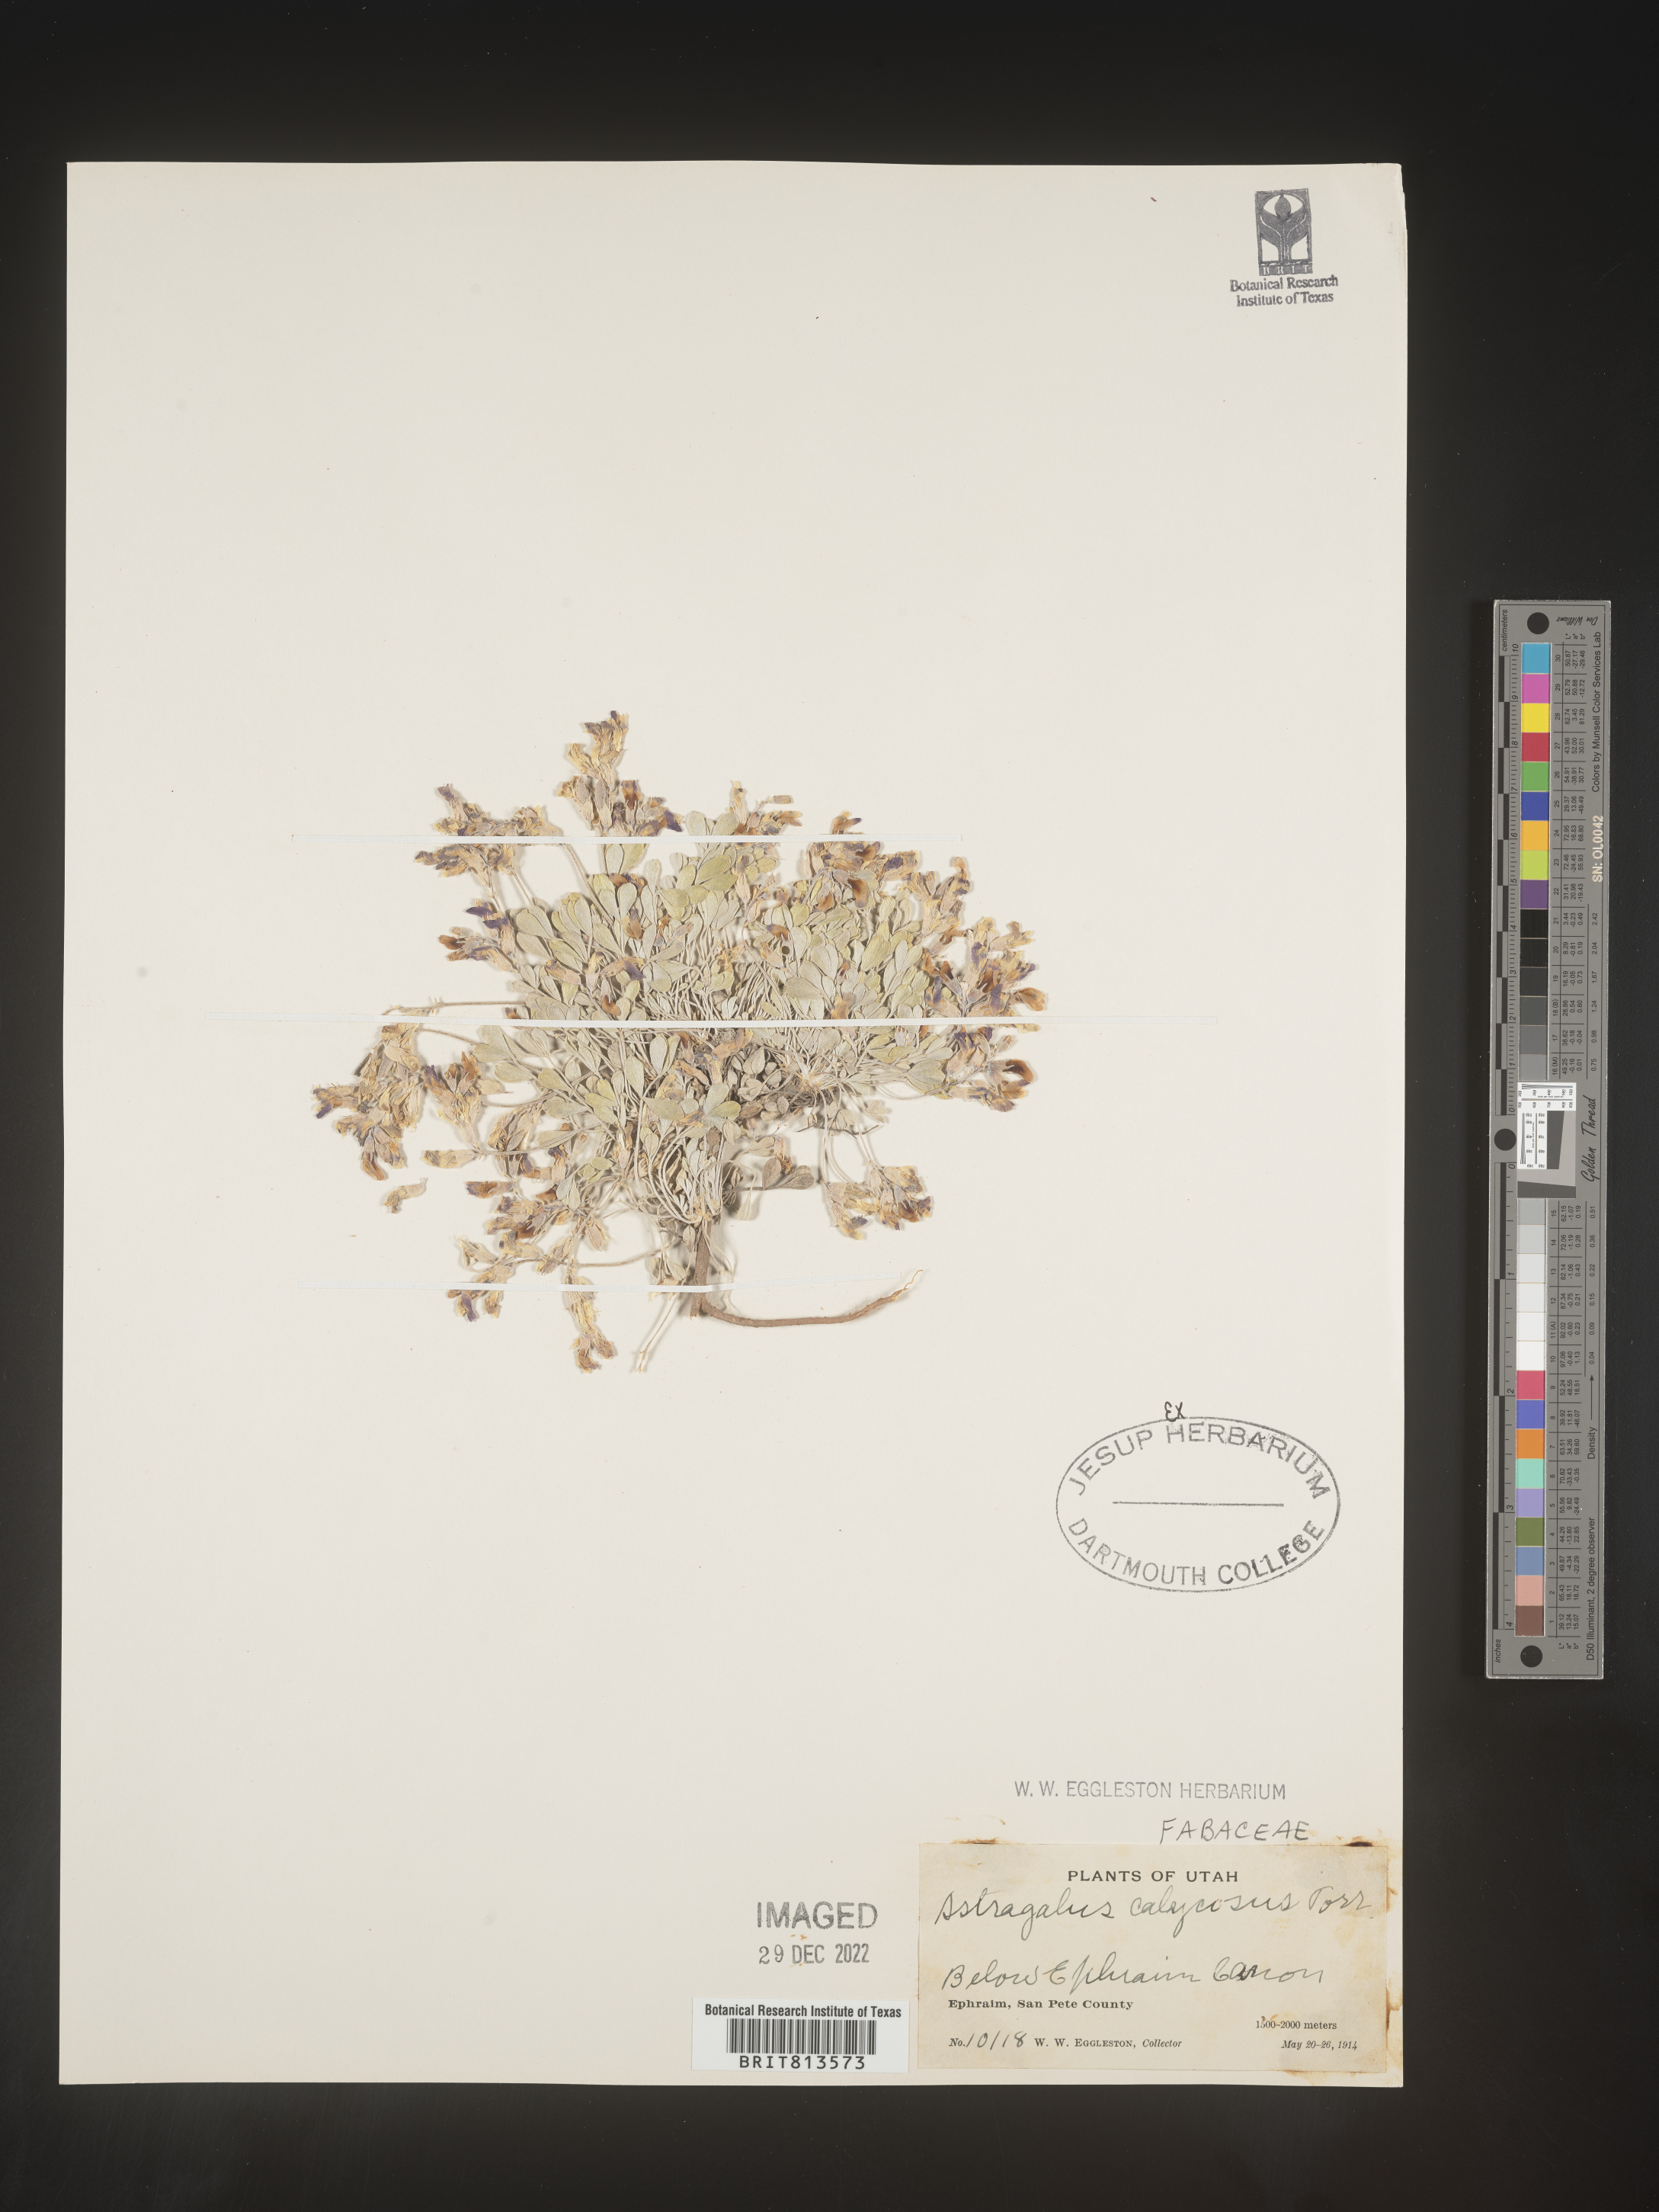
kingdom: Plantae
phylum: Tracheophyta
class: Magnoliopsida
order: Fabales
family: Fabaceae
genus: Astragalus
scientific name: Astragalus
